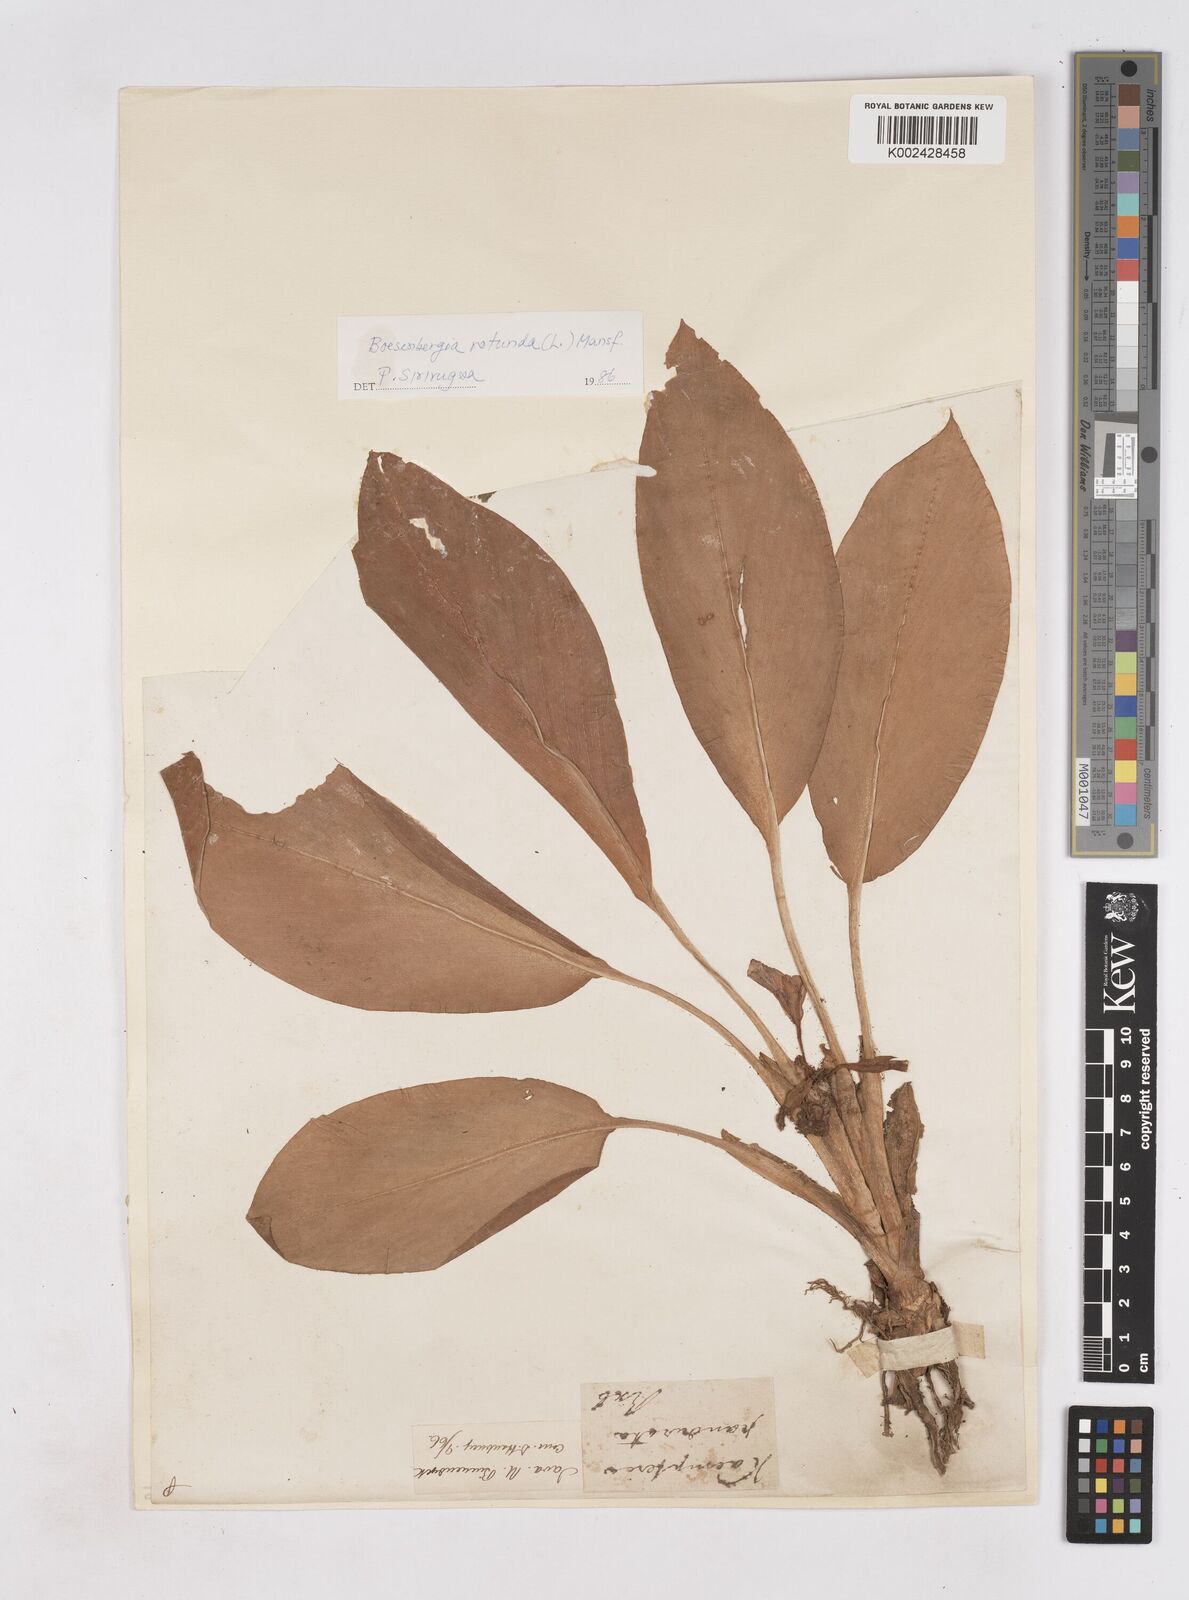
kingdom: Plantae
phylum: Tracheophyta
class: Liliopsida
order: Zingiberales
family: Zingiberaceae
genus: Boesenbergia
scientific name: Boesenbergia rotunda
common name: Chinese ginger
